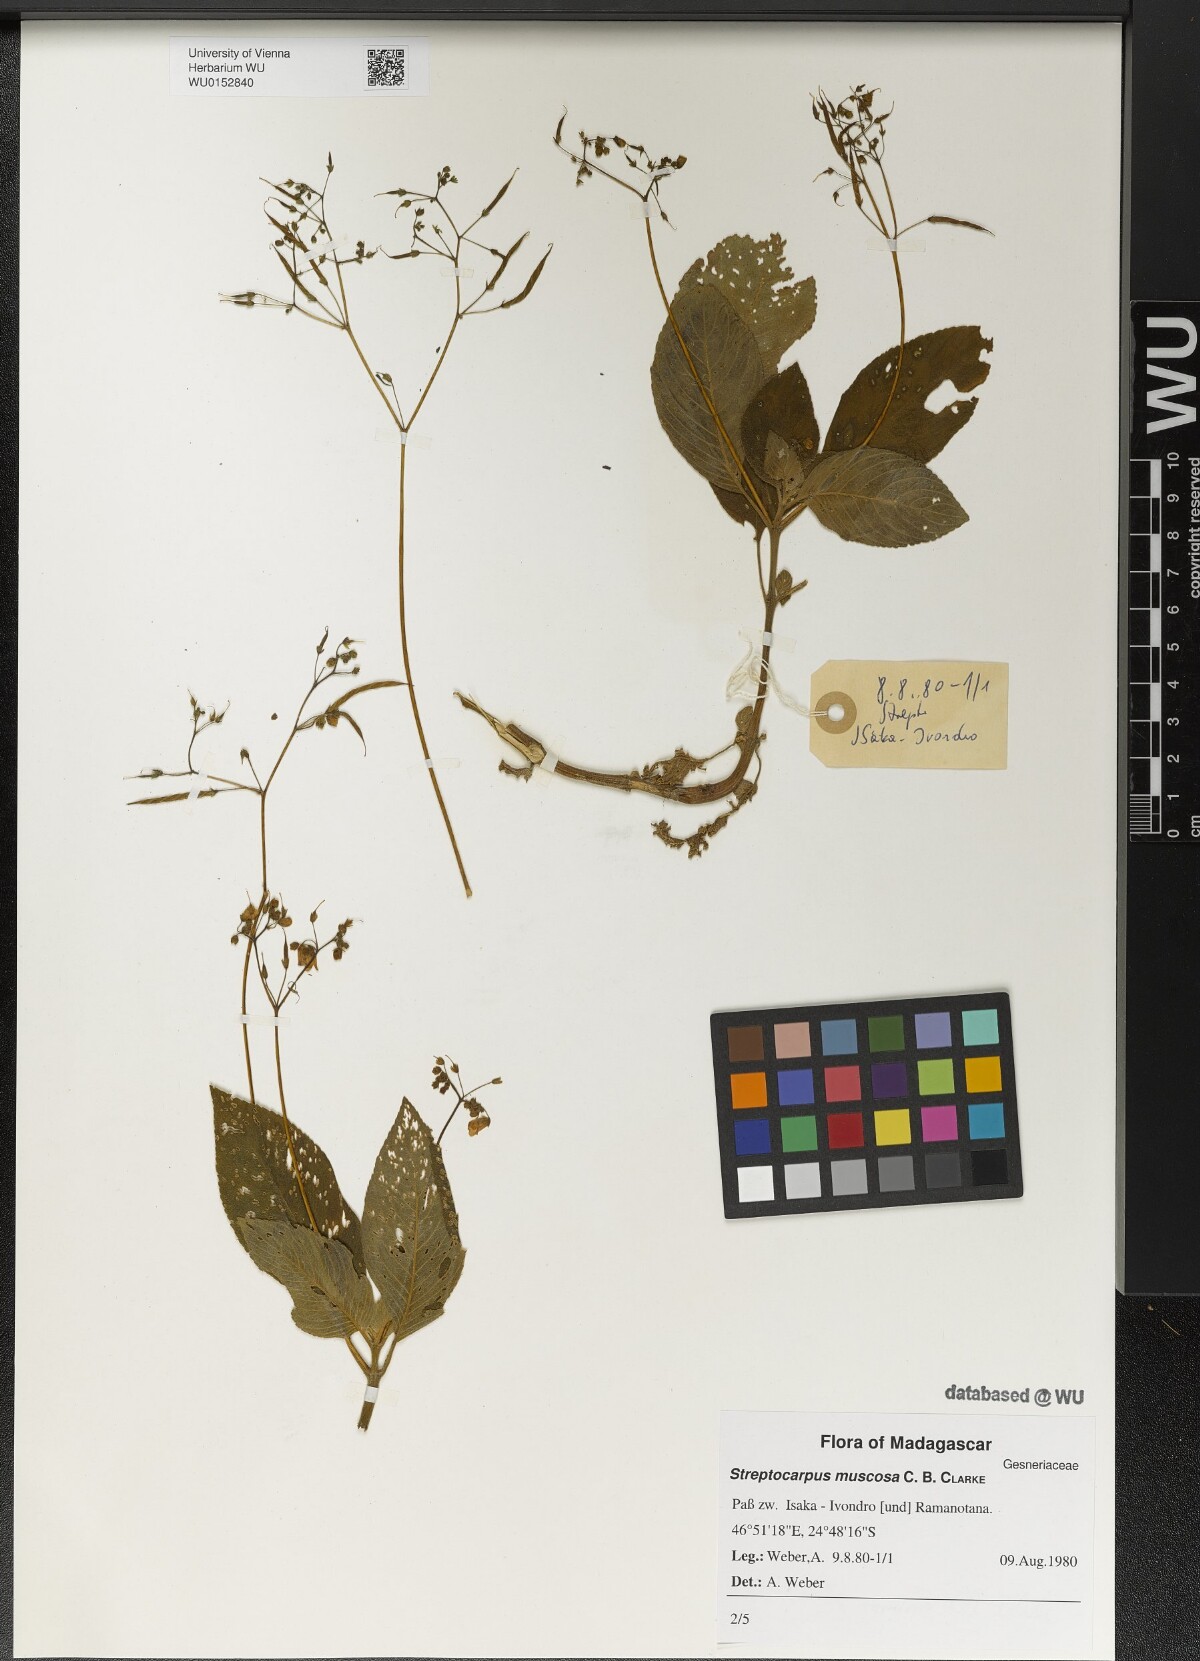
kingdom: Plantae
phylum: Tracheophyta
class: Magnoliopsida
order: Lamiales
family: Gesneriaceae
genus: Streptocarpus
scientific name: Streptocarpus muscosa
